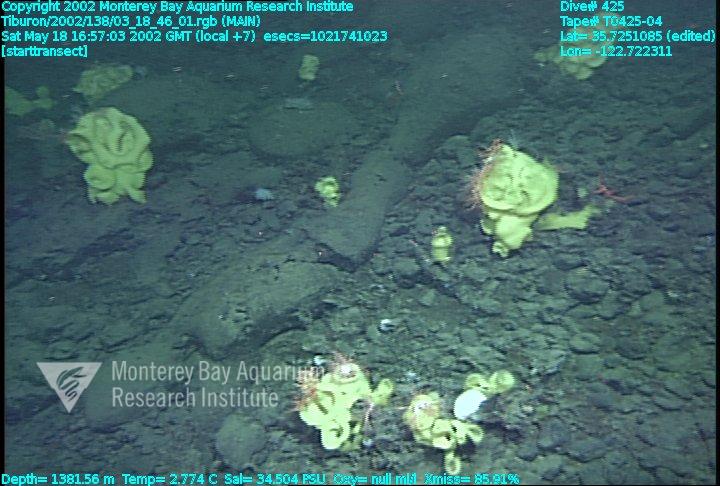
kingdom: Animalia
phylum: Porifera
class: Hexactinellida
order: Lyssacinosida
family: Rossellidae
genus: Staurocalyptus
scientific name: Staurocalyptus
